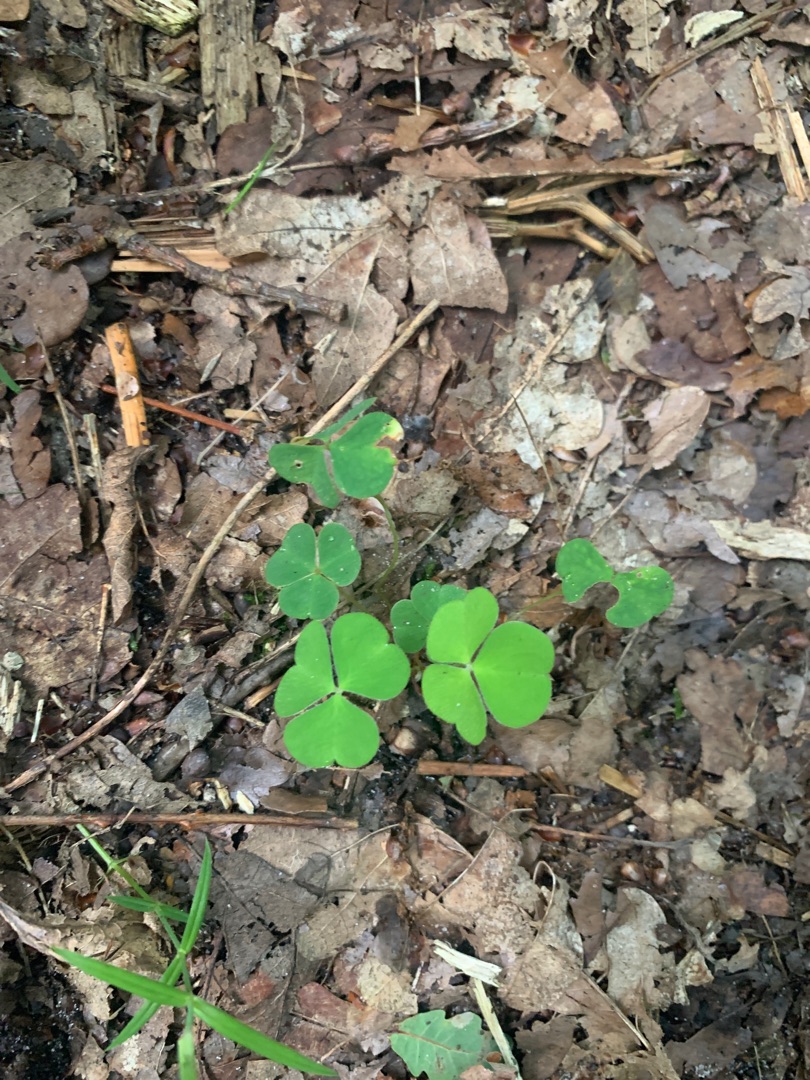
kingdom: Plantae
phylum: Tracheophyta
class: Magnoliopsida
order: Oxalidales
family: Oxalidaceae
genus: Oxalis
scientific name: Oxalis acetosella
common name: Skovsyre
